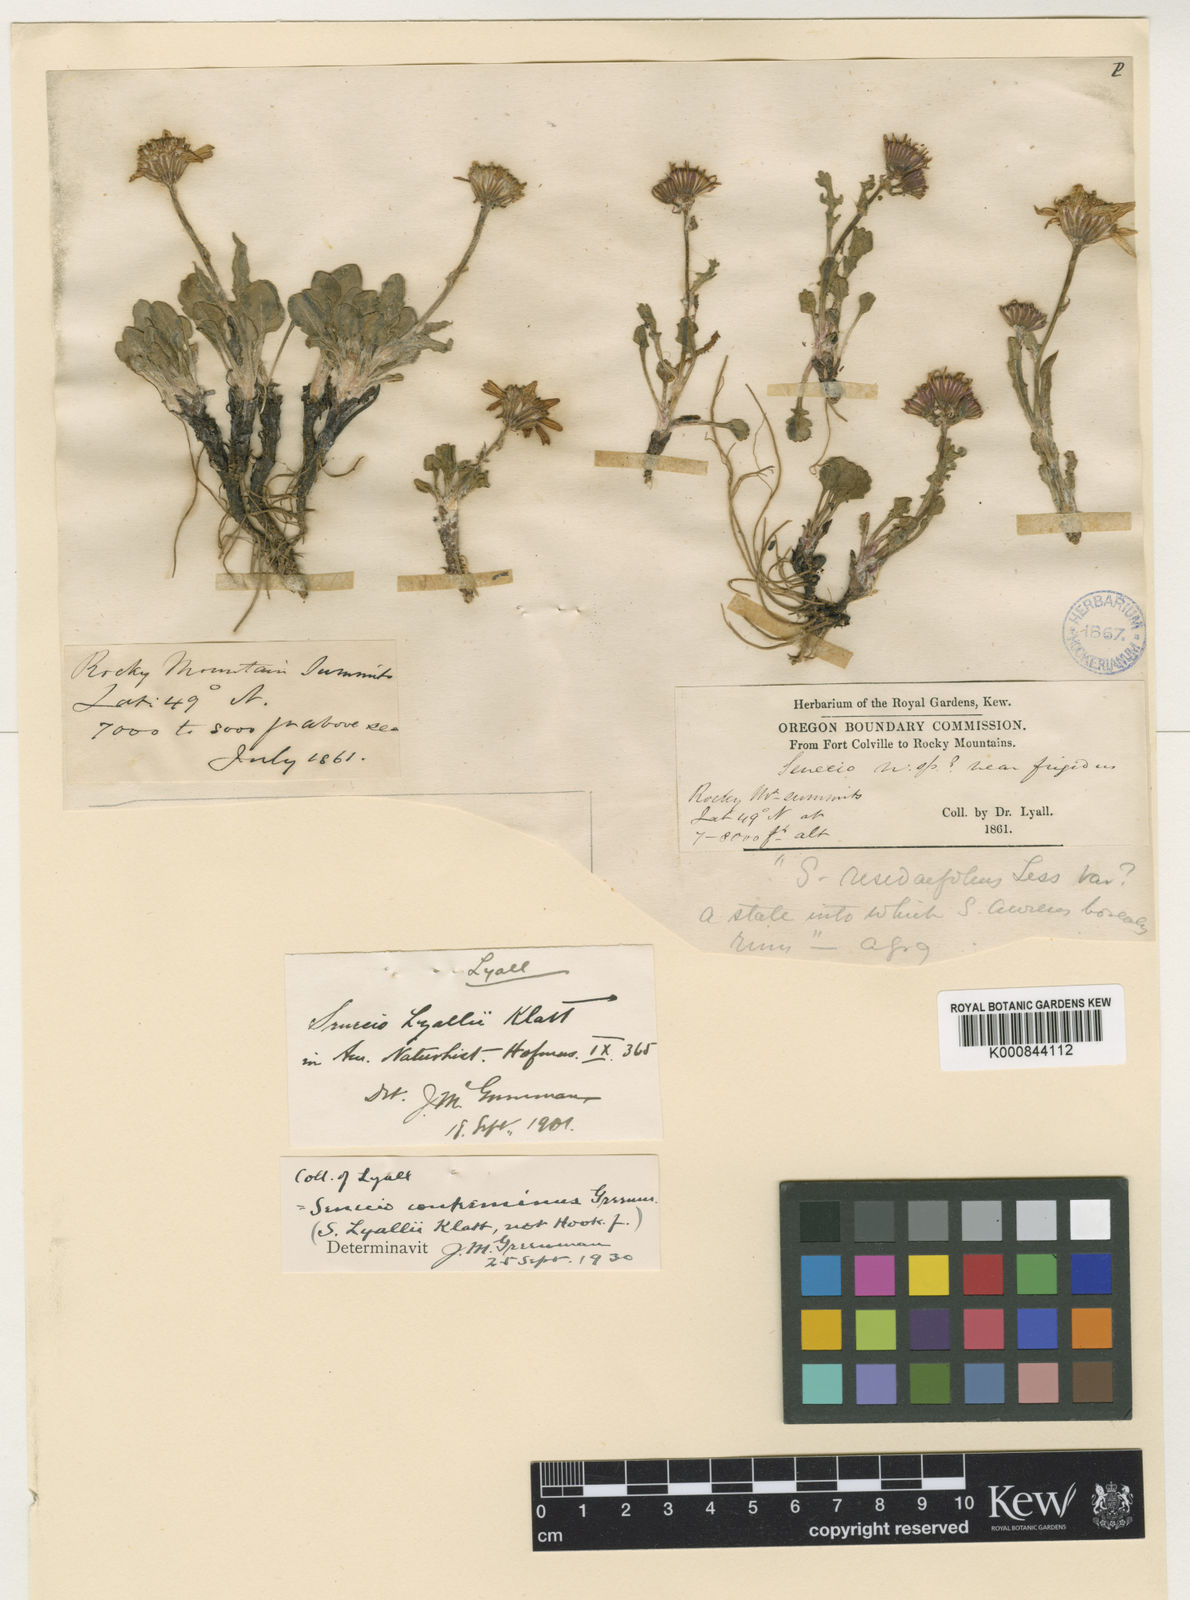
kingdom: Plantae
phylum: Tracheophyta
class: Magnoliopsida
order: Asterales
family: Asteraceae
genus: Packera
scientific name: Packera contermina
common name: High alpine butterweed
